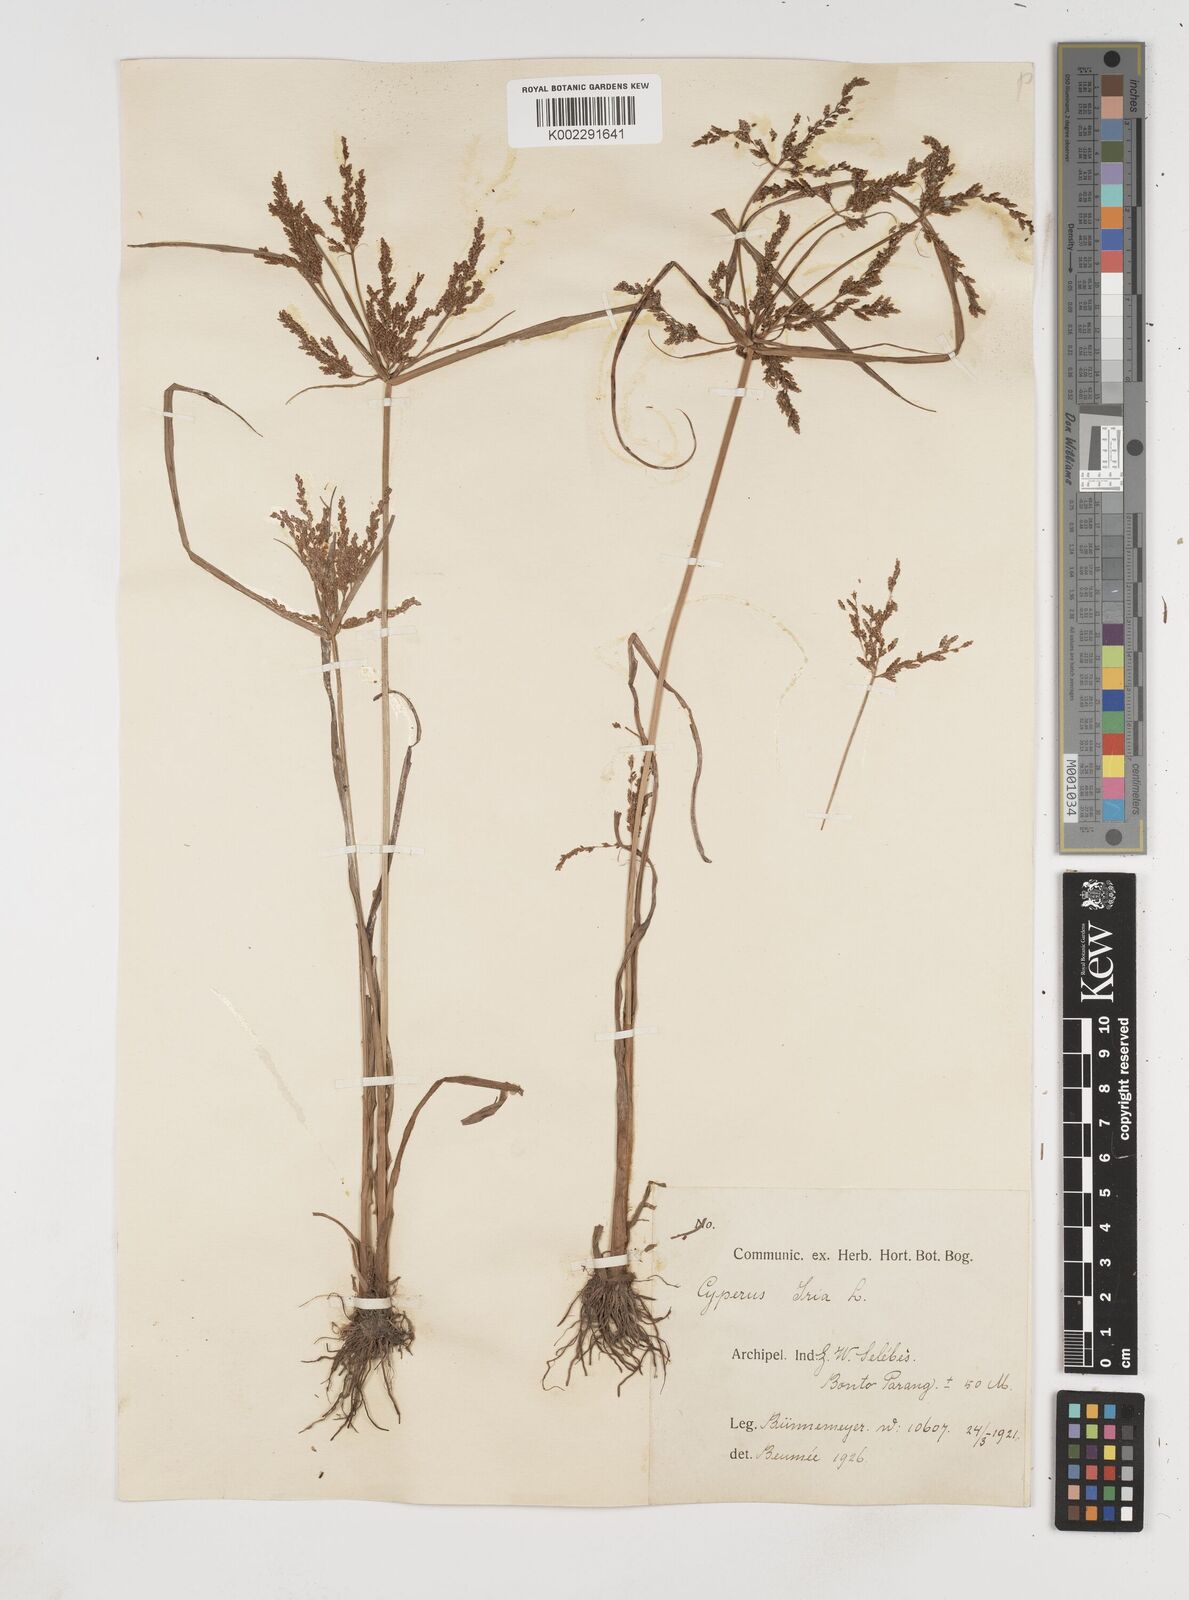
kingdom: Plantae
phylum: Tracheophyta
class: Liliopsida
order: Poales
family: Cyperaceae
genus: Cyperus
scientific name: Cyperus iria
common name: Ricefield flatsedge
